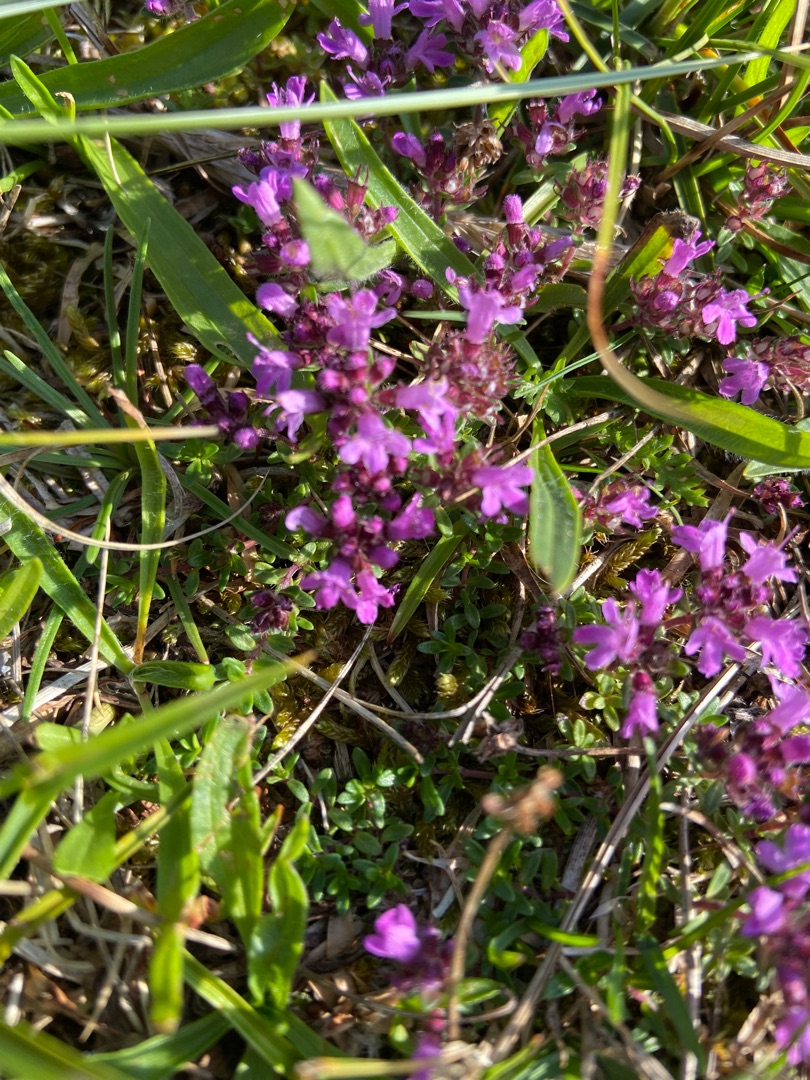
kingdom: Plantae
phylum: Tracheophyta
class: Magnoliopsida
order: Lamiales
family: Lamiaceae
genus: Thymus
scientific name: Thymus serpyllum
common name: Smalbladet timian
